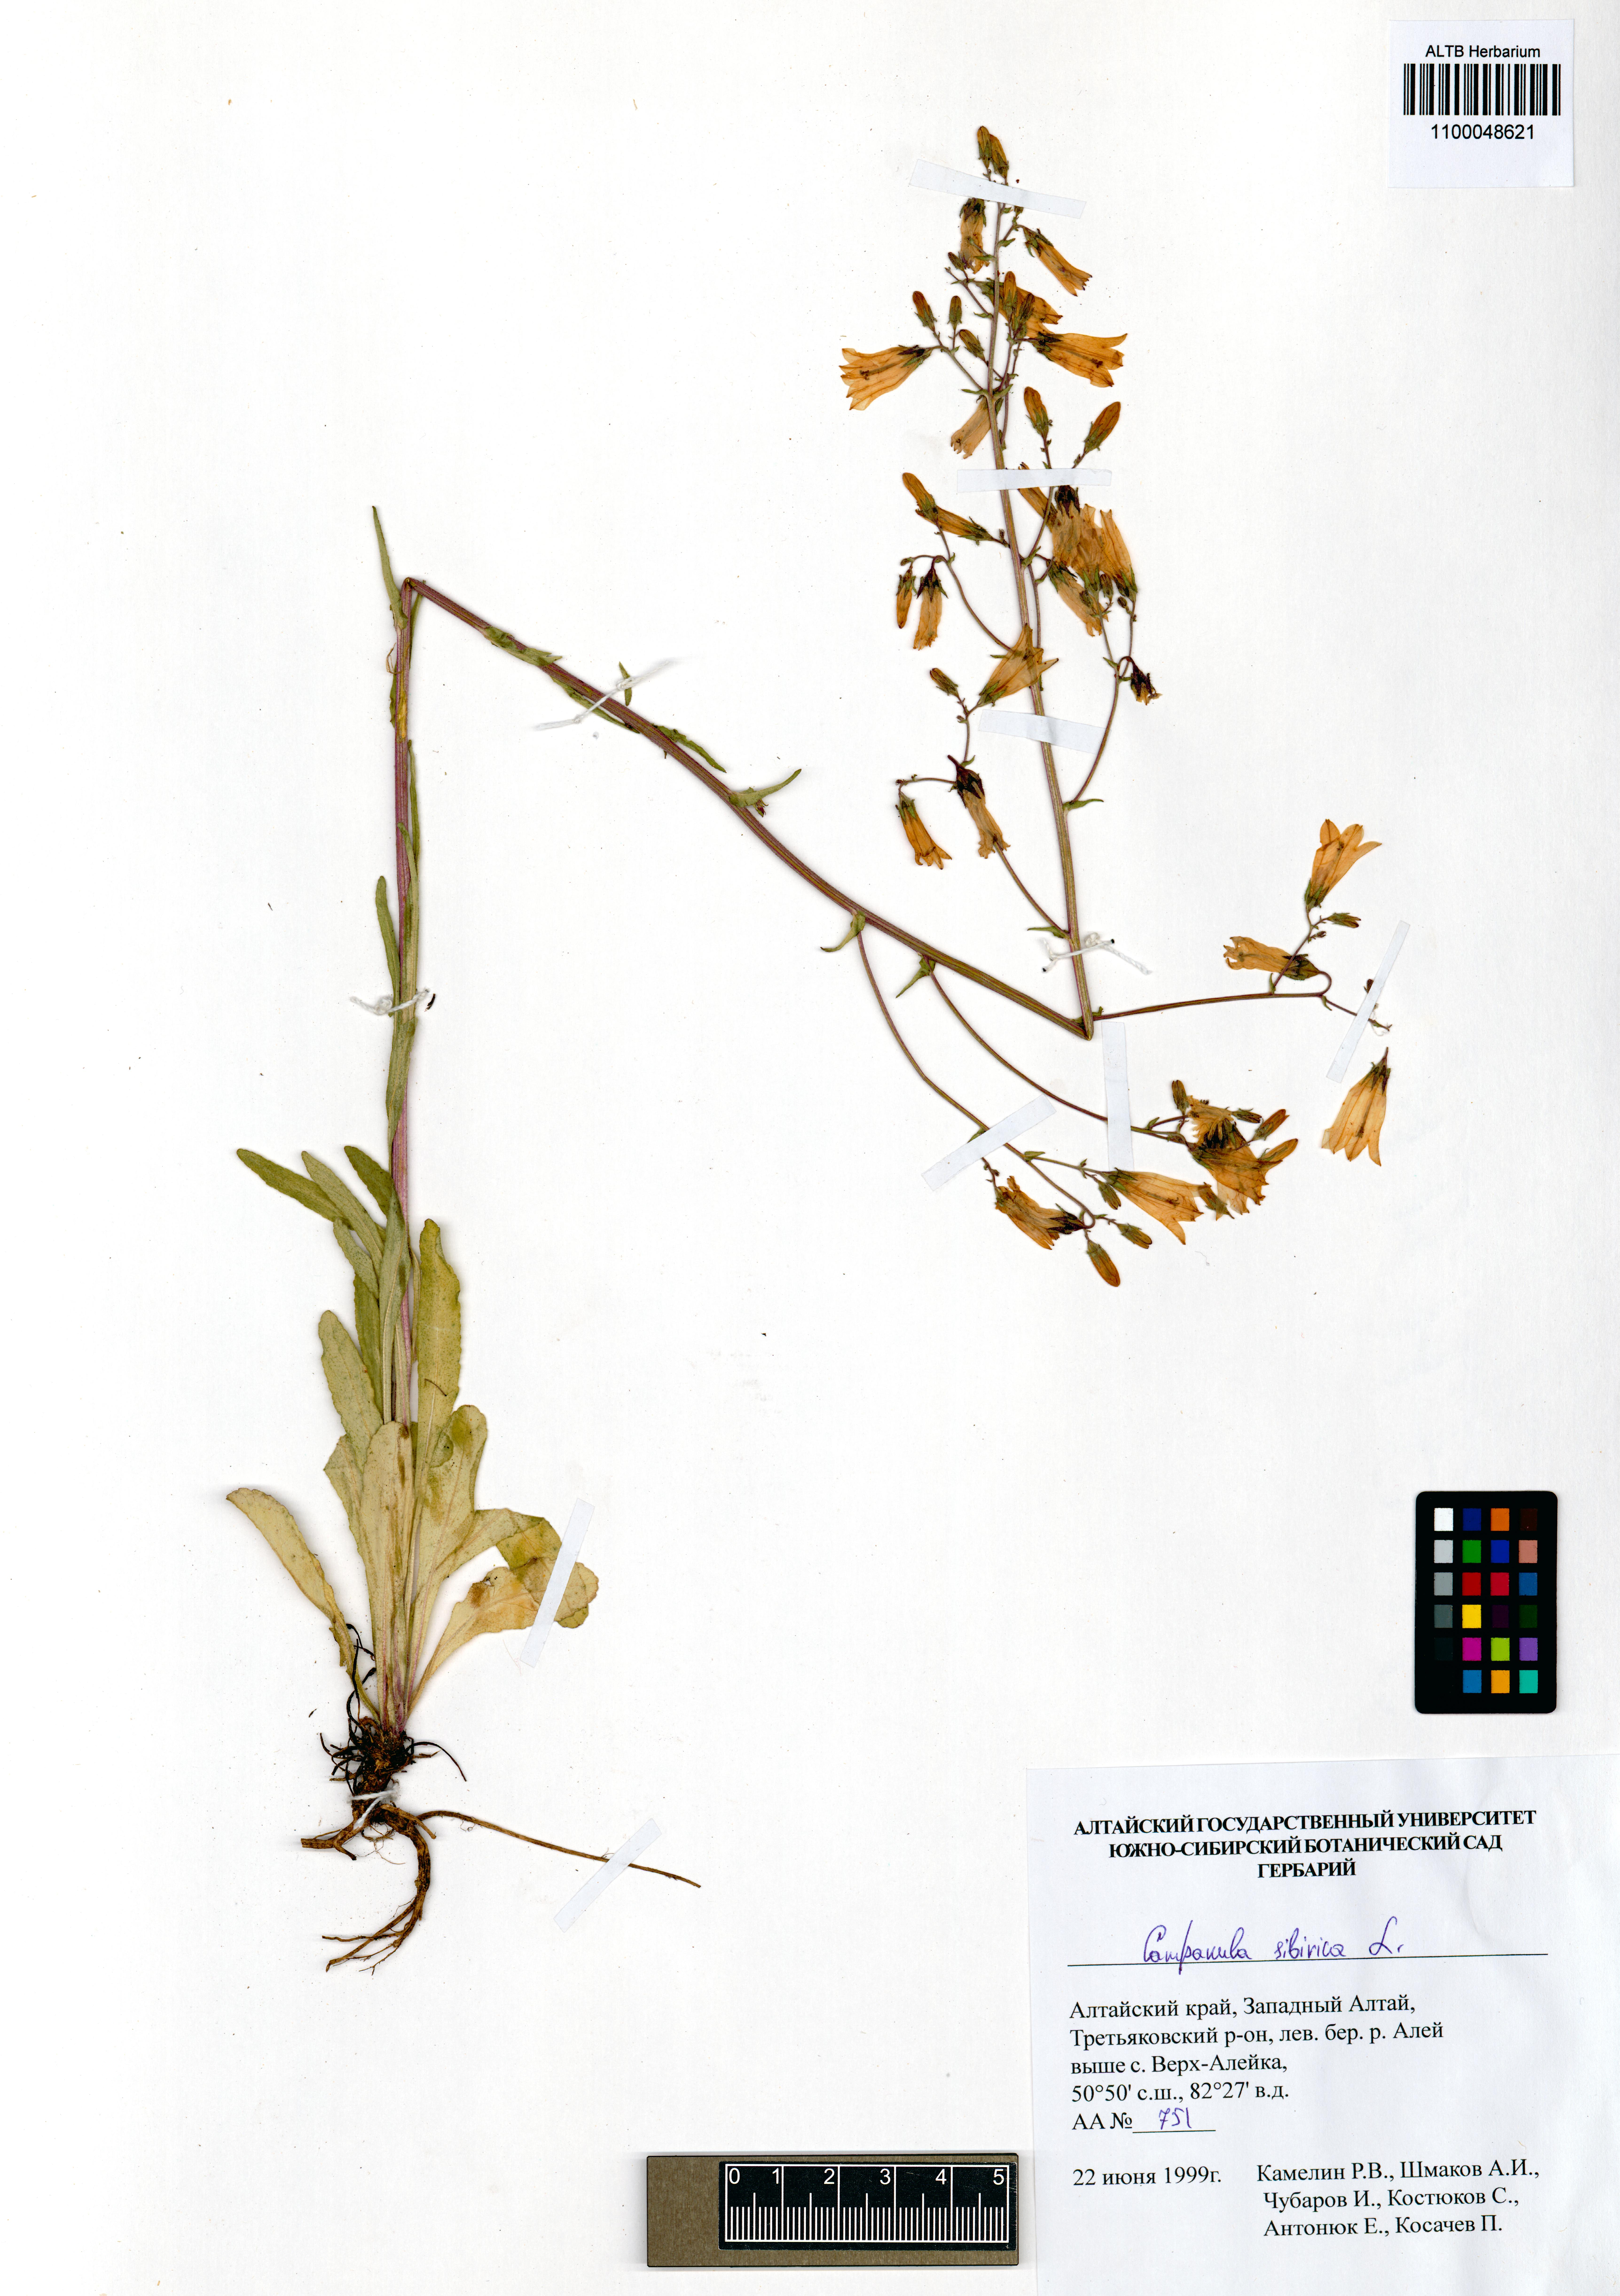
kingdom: Plantae
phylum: Tracheophyta
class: Magnoliopsida
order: Asterales
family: Campanulaceae
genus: Campanula
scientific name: Campanula sibirica
